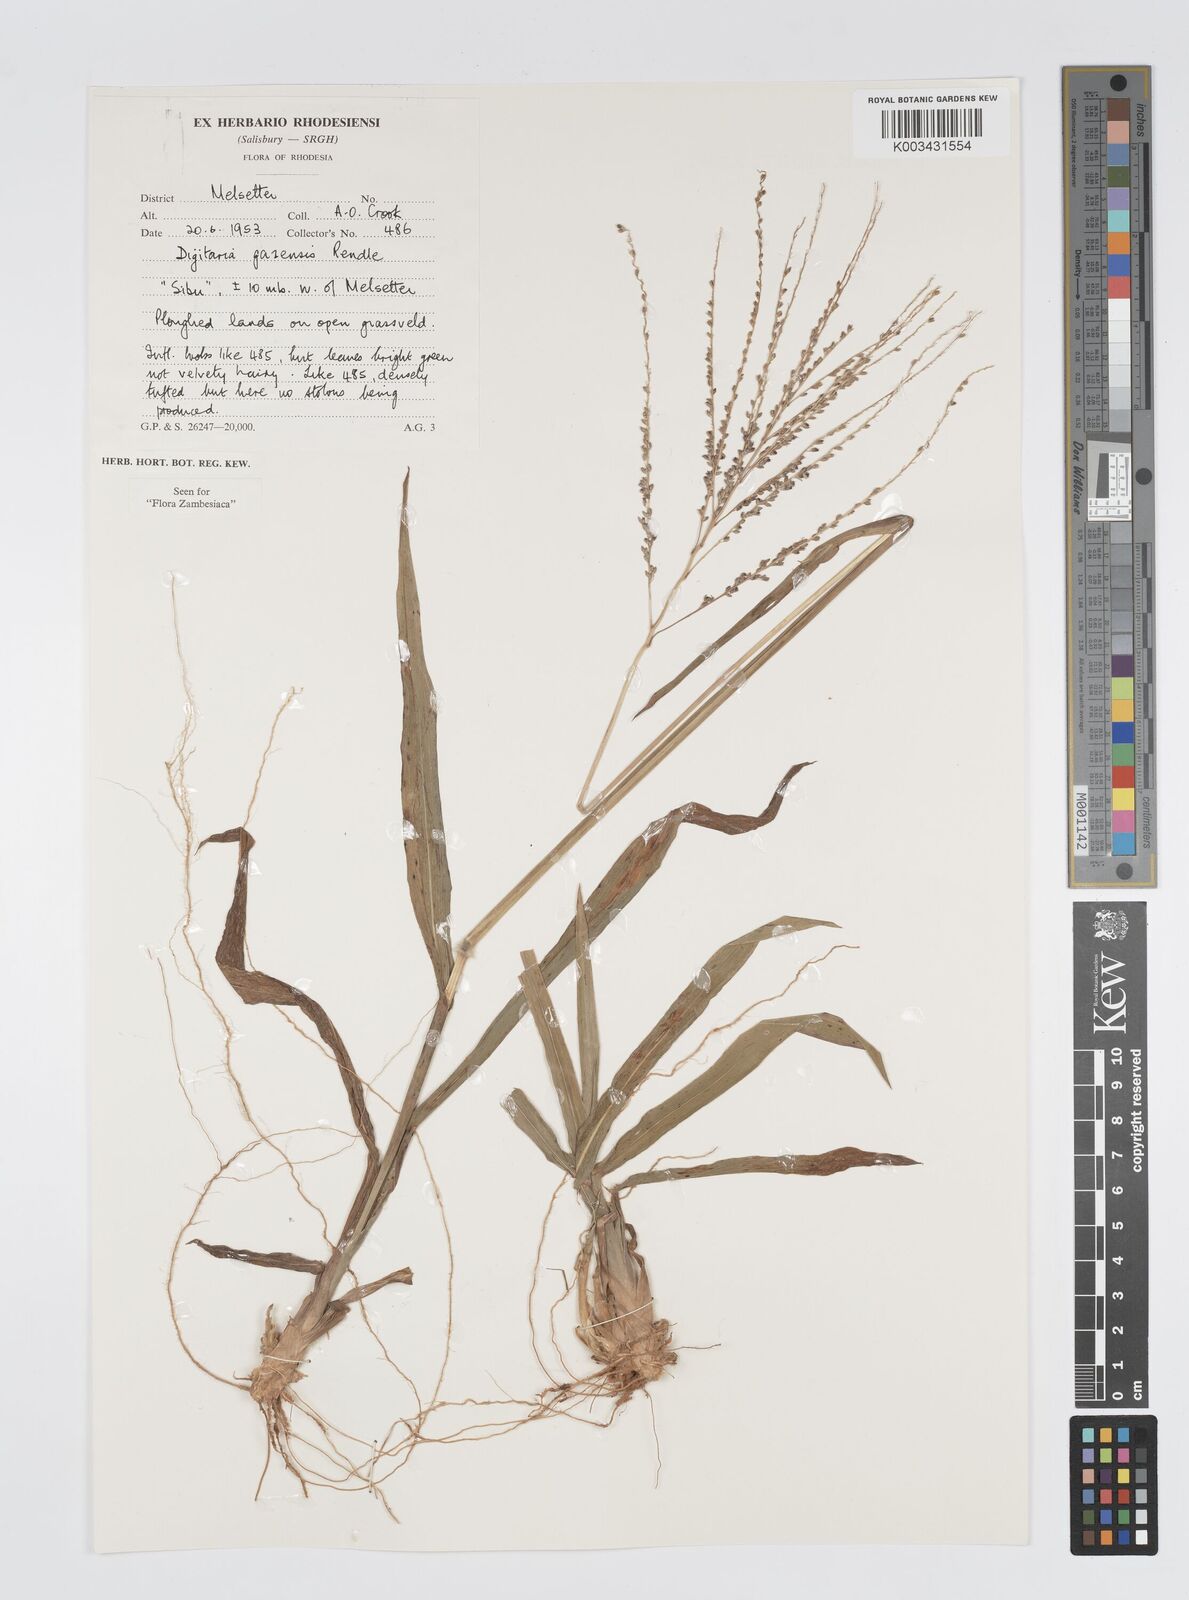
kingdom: Plantae
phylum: Tracheophyta
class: Liliopsida
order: Poales
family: Poaceae
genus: Digitaria
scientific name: Digitaria gazensis
